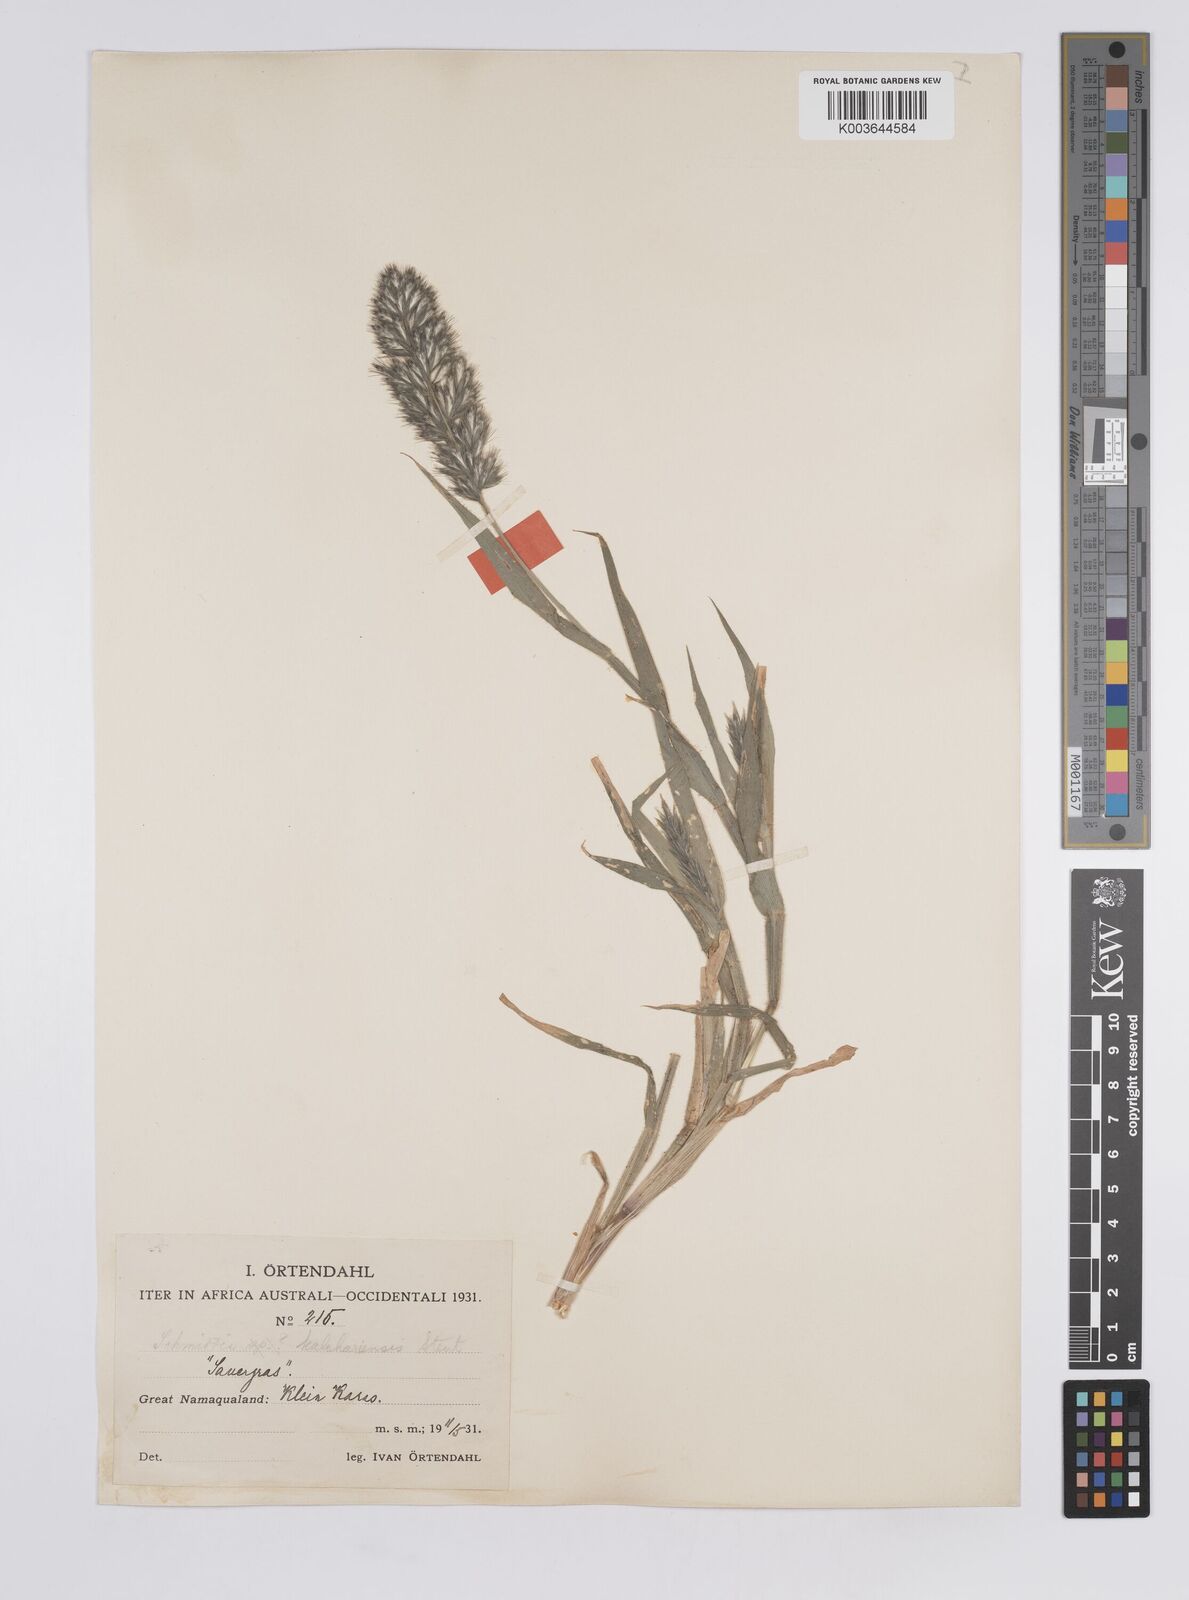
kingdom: Plantae
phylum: Tracheophyta
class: Liliopsida
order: Poales
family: Poaceae
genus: Schmidtia
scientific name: Schmidtia kalahariensis
